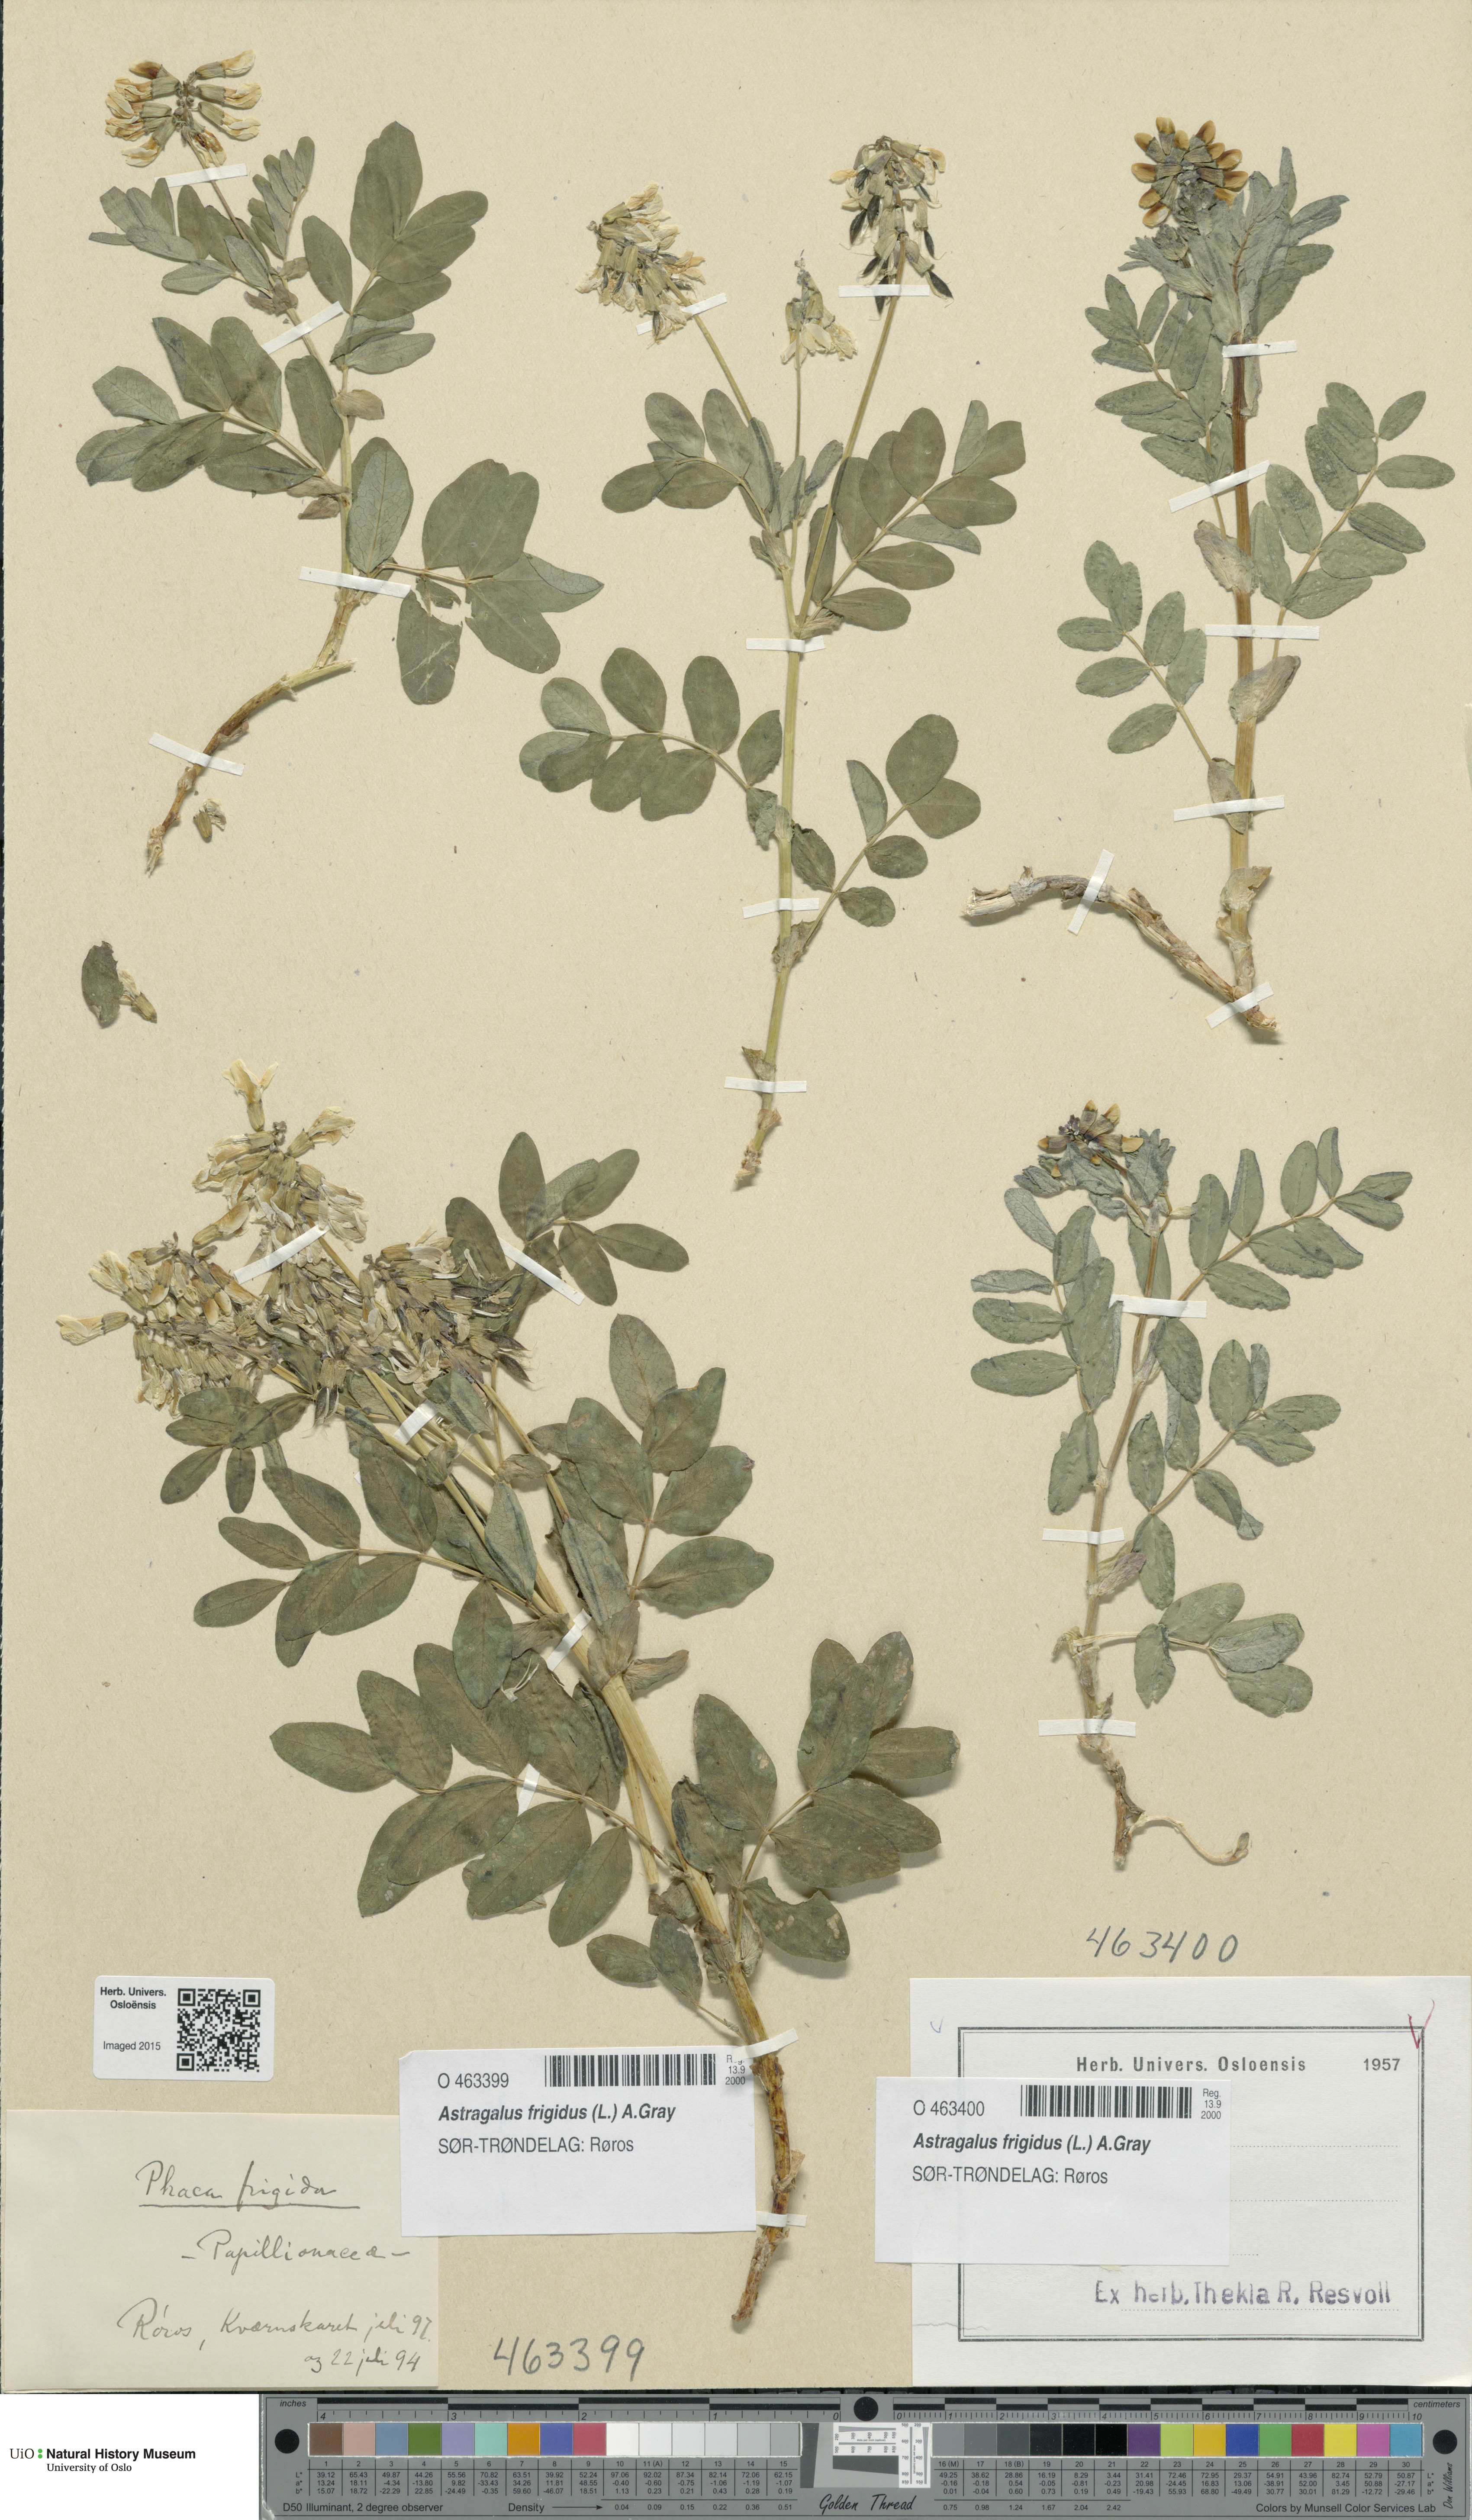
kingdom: Plantae
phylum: Tracheophyta
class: Magnoliopsida
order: Fabales
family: Fabaceae
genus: Astragalus
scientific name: Astragalus frigidus
